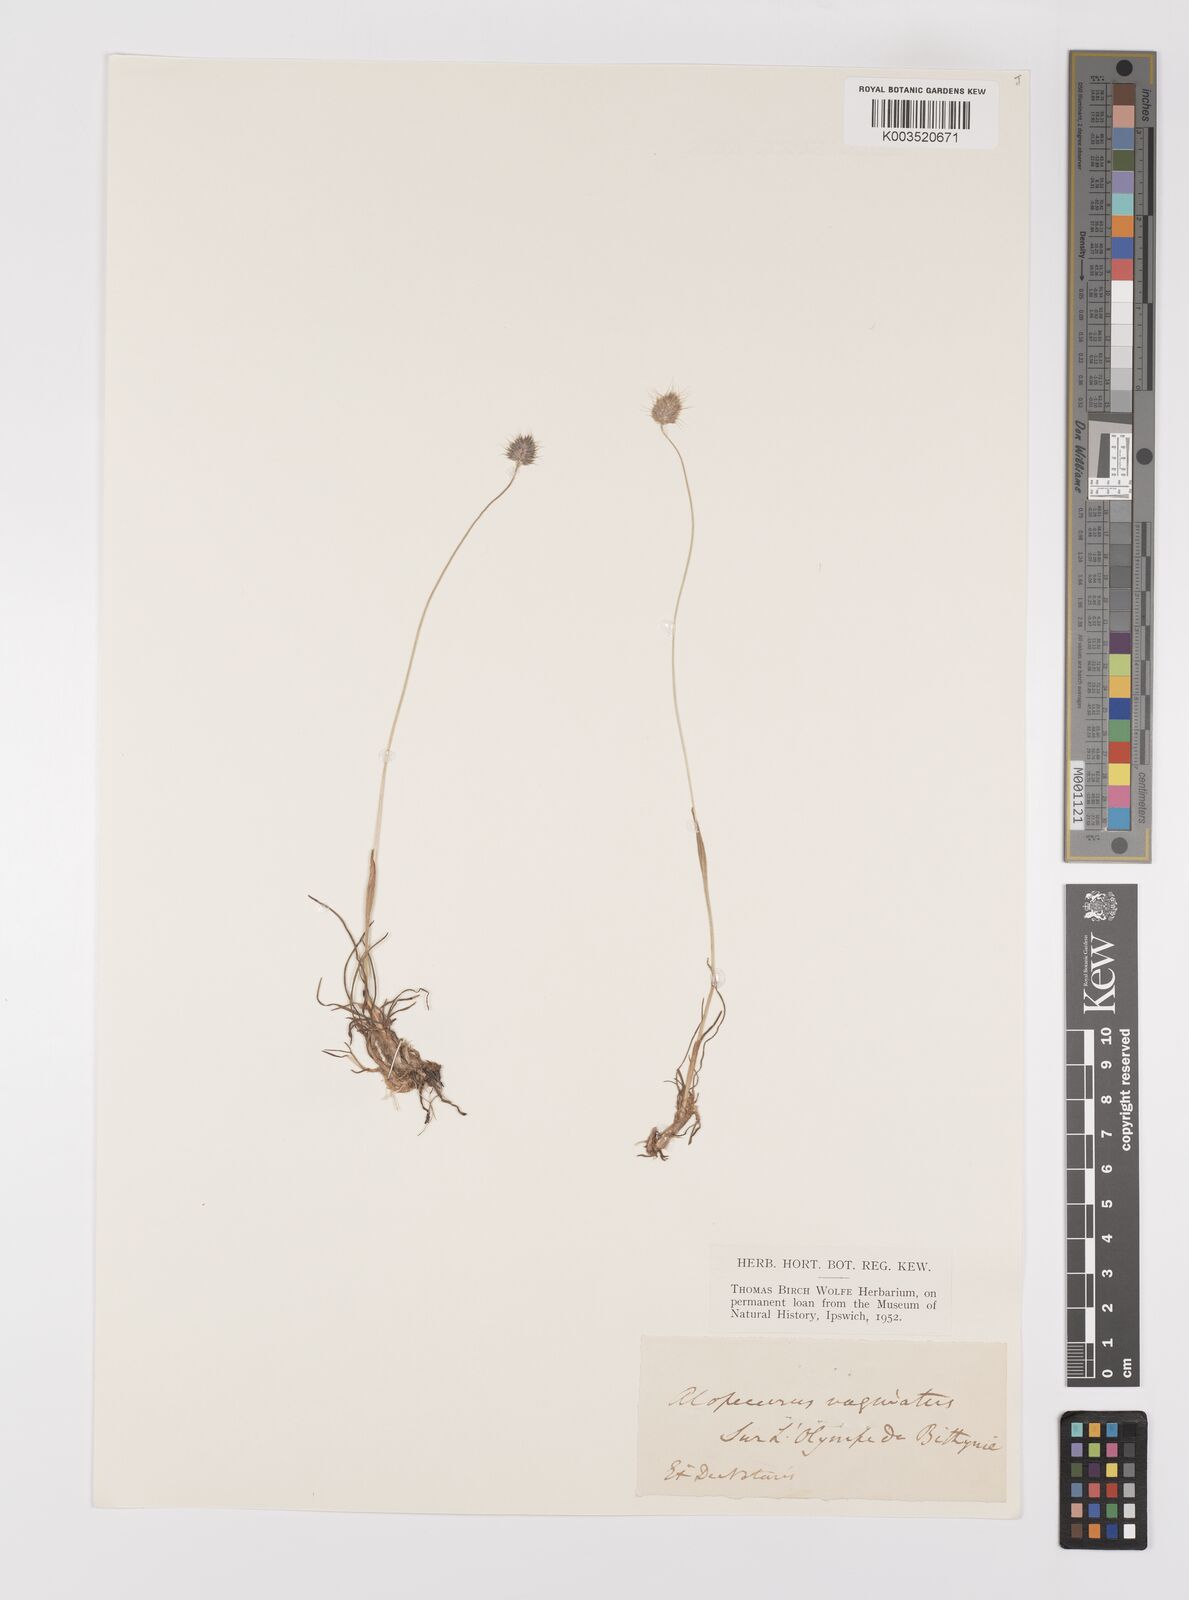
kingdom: Plantae
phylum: Tracheophyta
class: Liliopsida
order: Poales
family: Poaceae
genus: Alopecurus
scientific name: Alopecurus vaginatus
